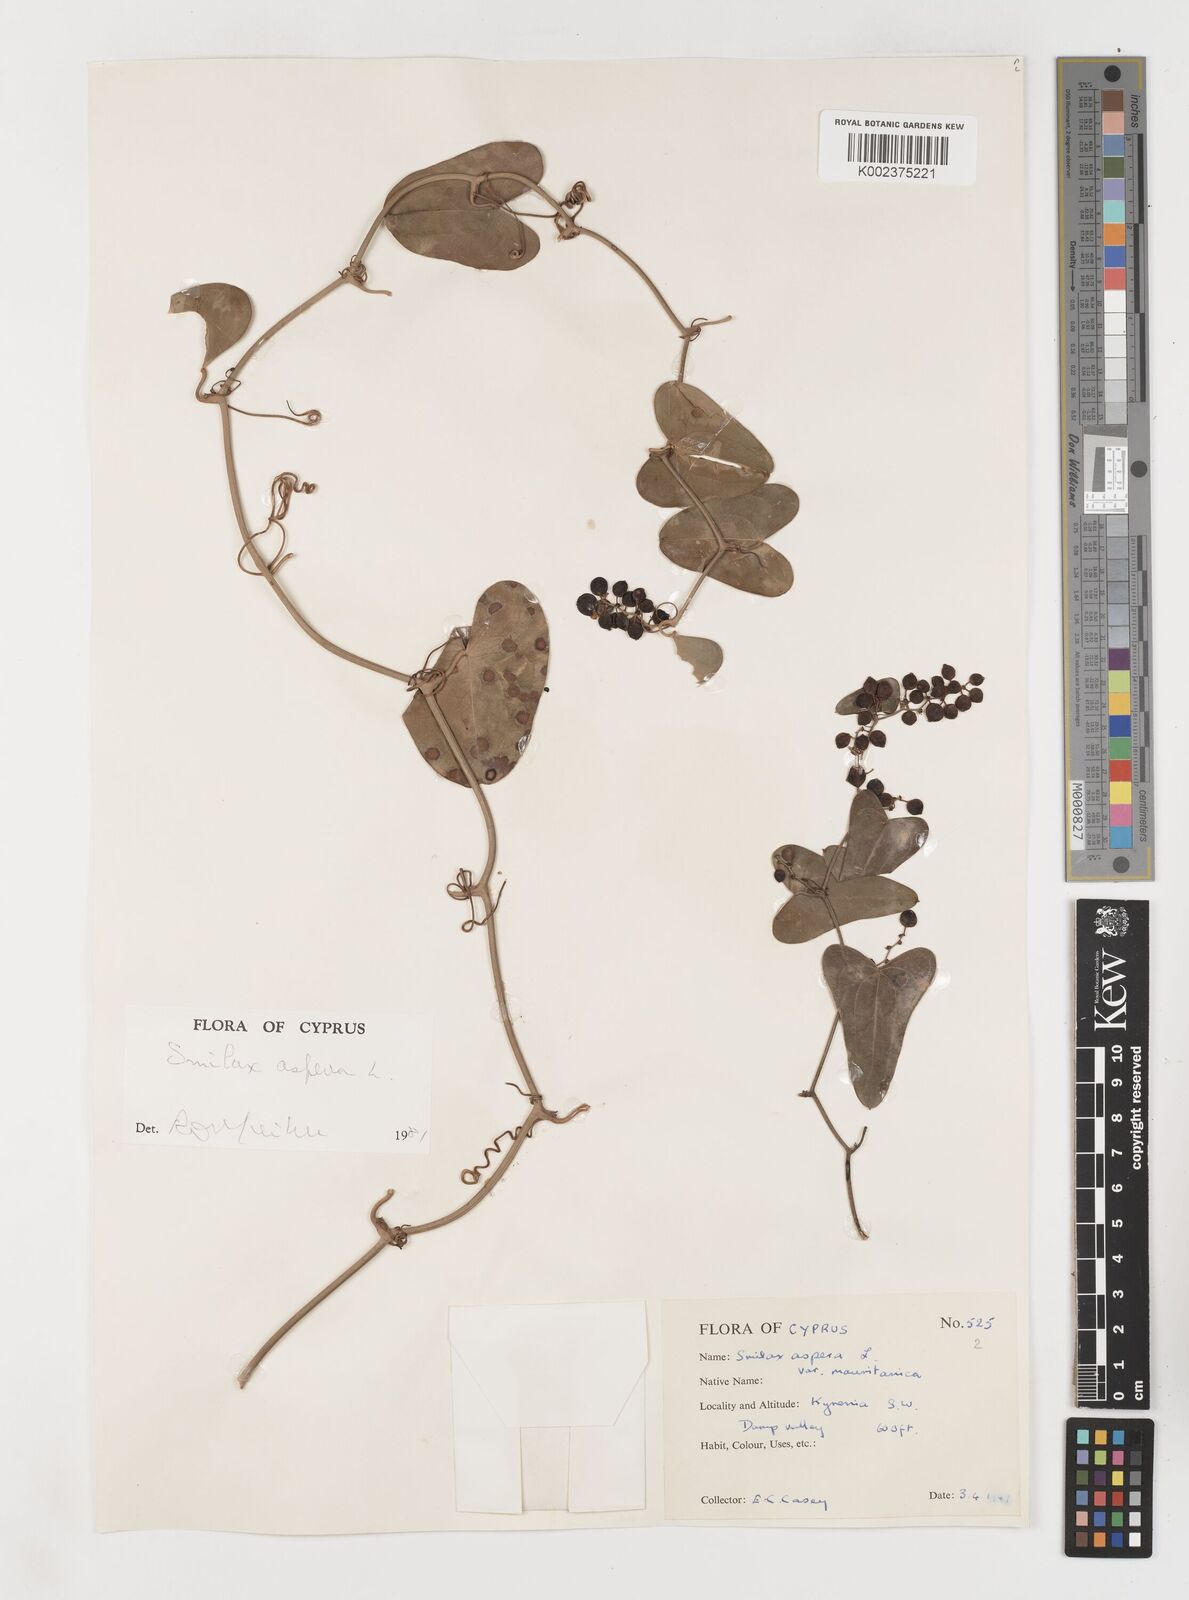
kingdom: Plantae
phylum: Tracheophyta
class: Liliopsida
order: Liliales
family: Smilacaceae
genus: Smilax
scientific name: Smilax aspera
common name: Common smilax
